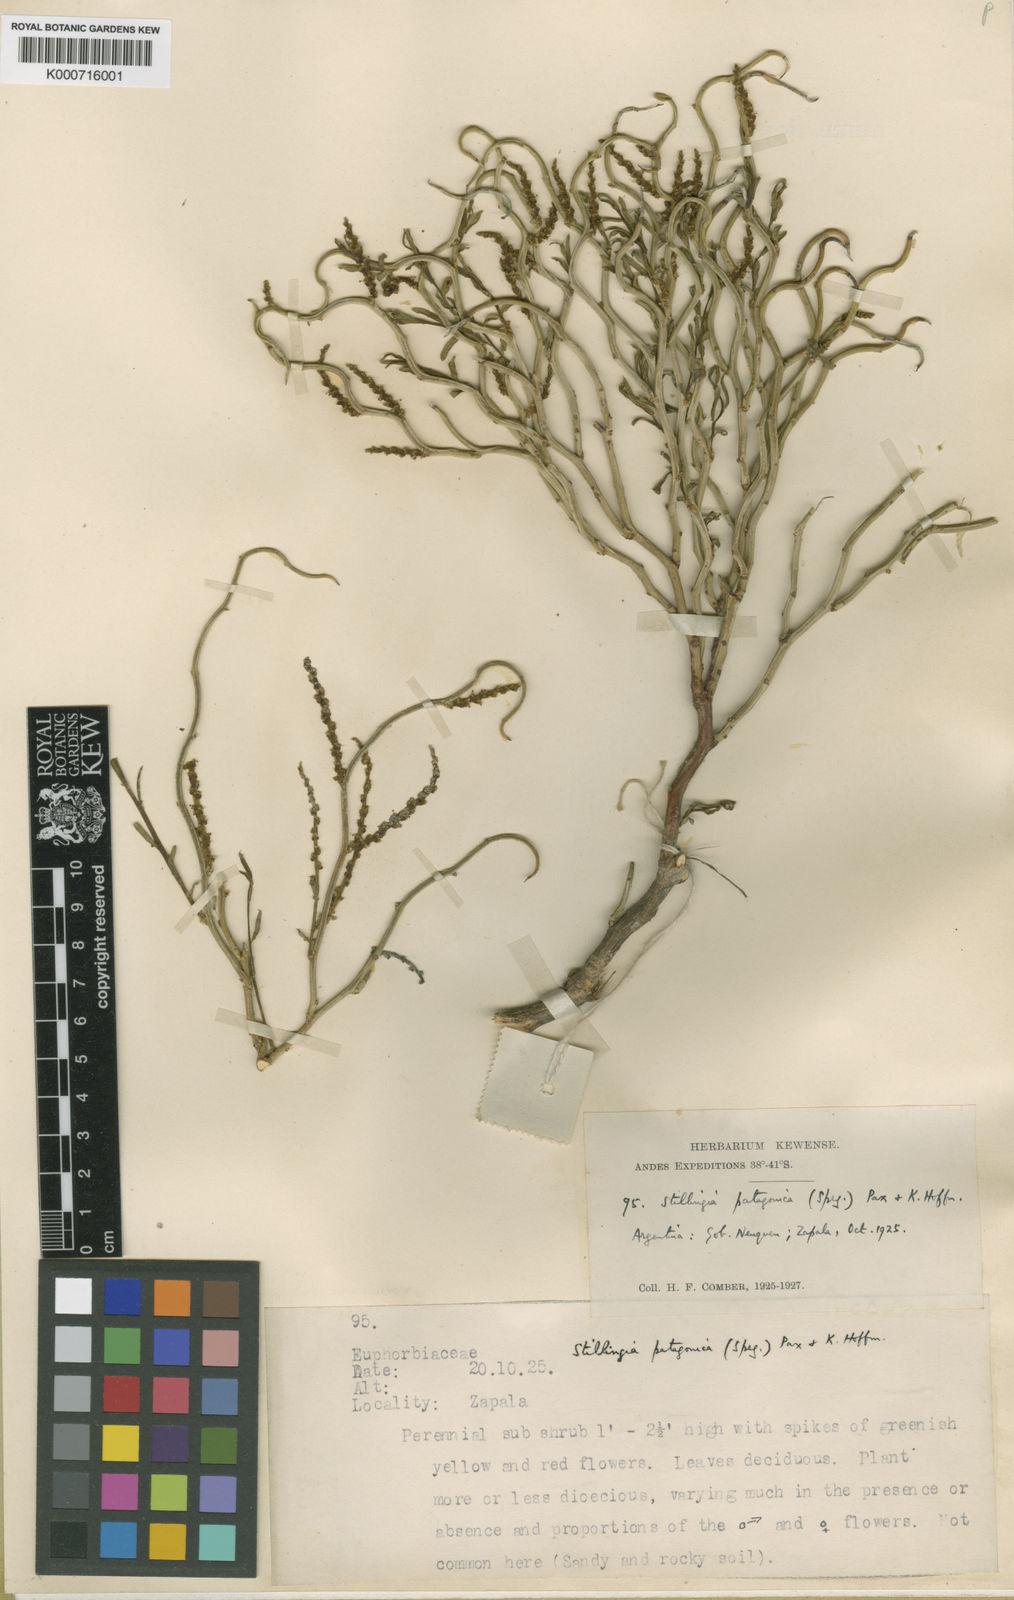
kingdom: Plantae
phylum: Tracheophyta
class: Magnoliopsida
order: Malpighiales
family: Euphorbiaceae
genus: Spegazziniophytum
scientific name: Spegazziniophytum patagonicum
